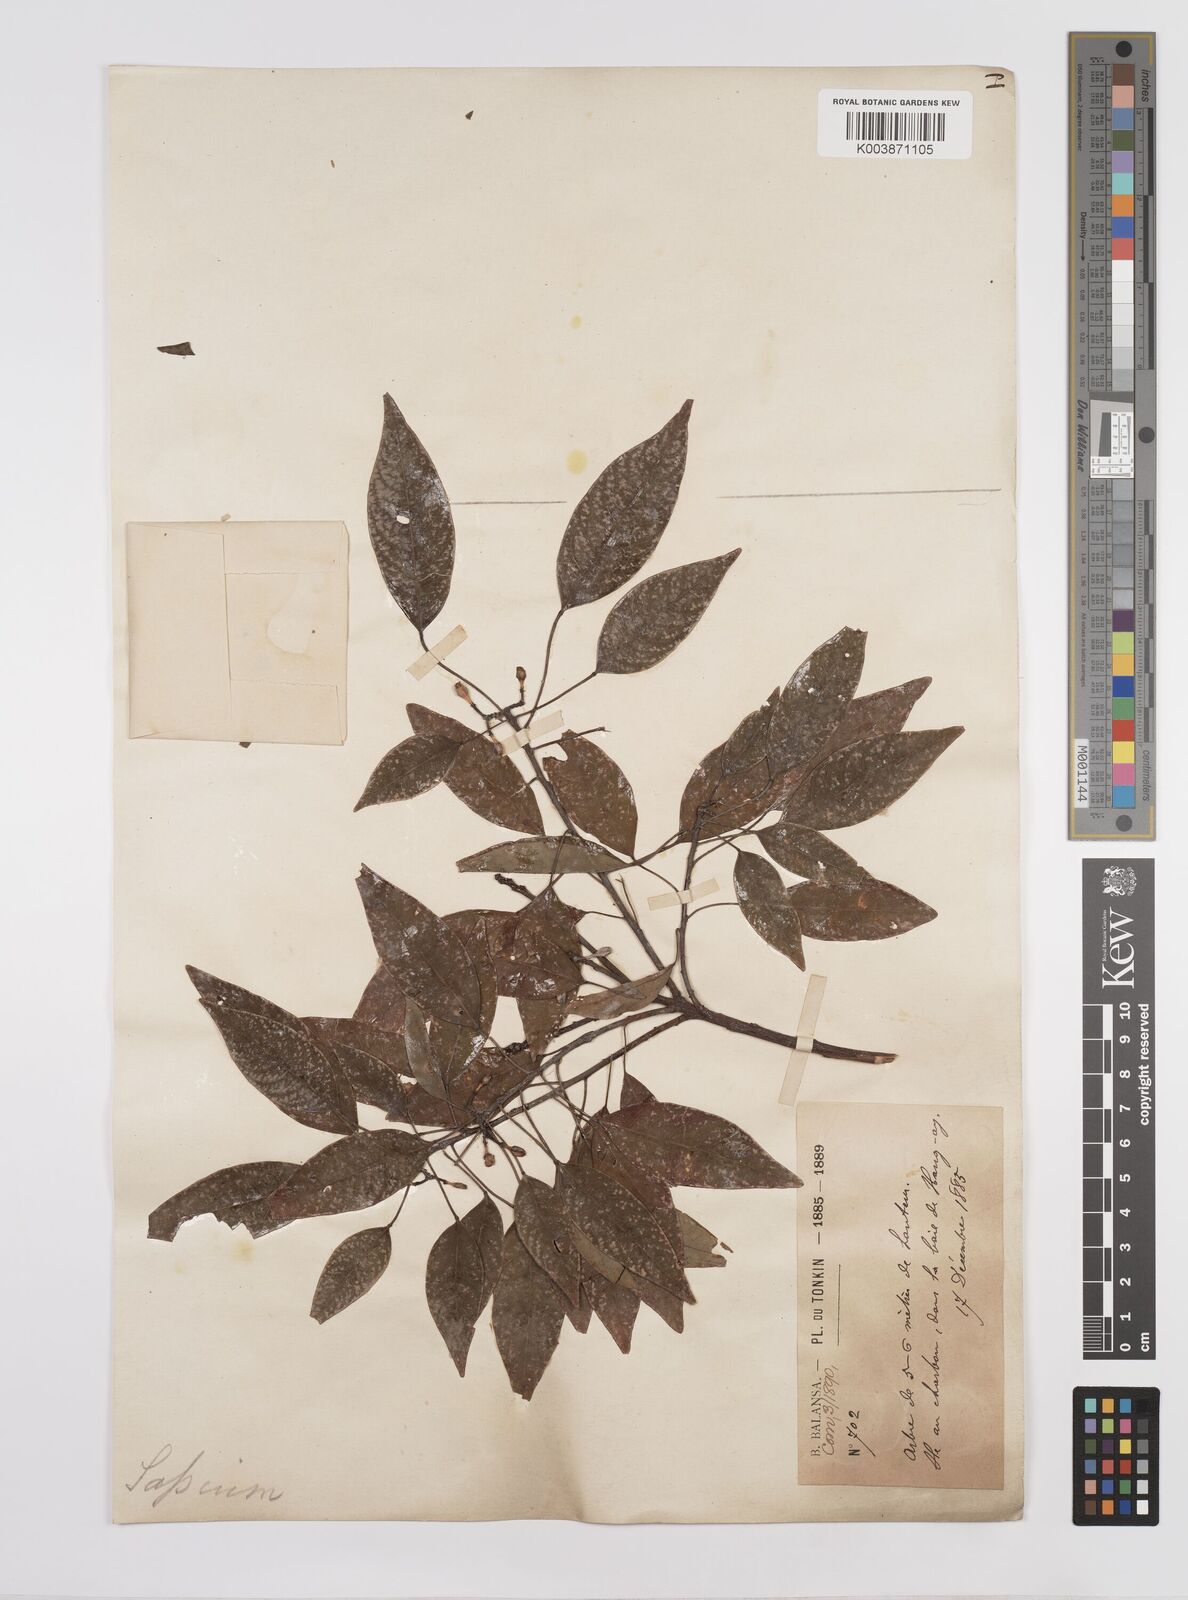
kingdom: Plantae
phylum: Tracheophyta
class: Magnoliopsida
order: Malpighiales
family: Euphorbiaceae
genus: Triadica
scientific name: Triadica cochinchinensis
